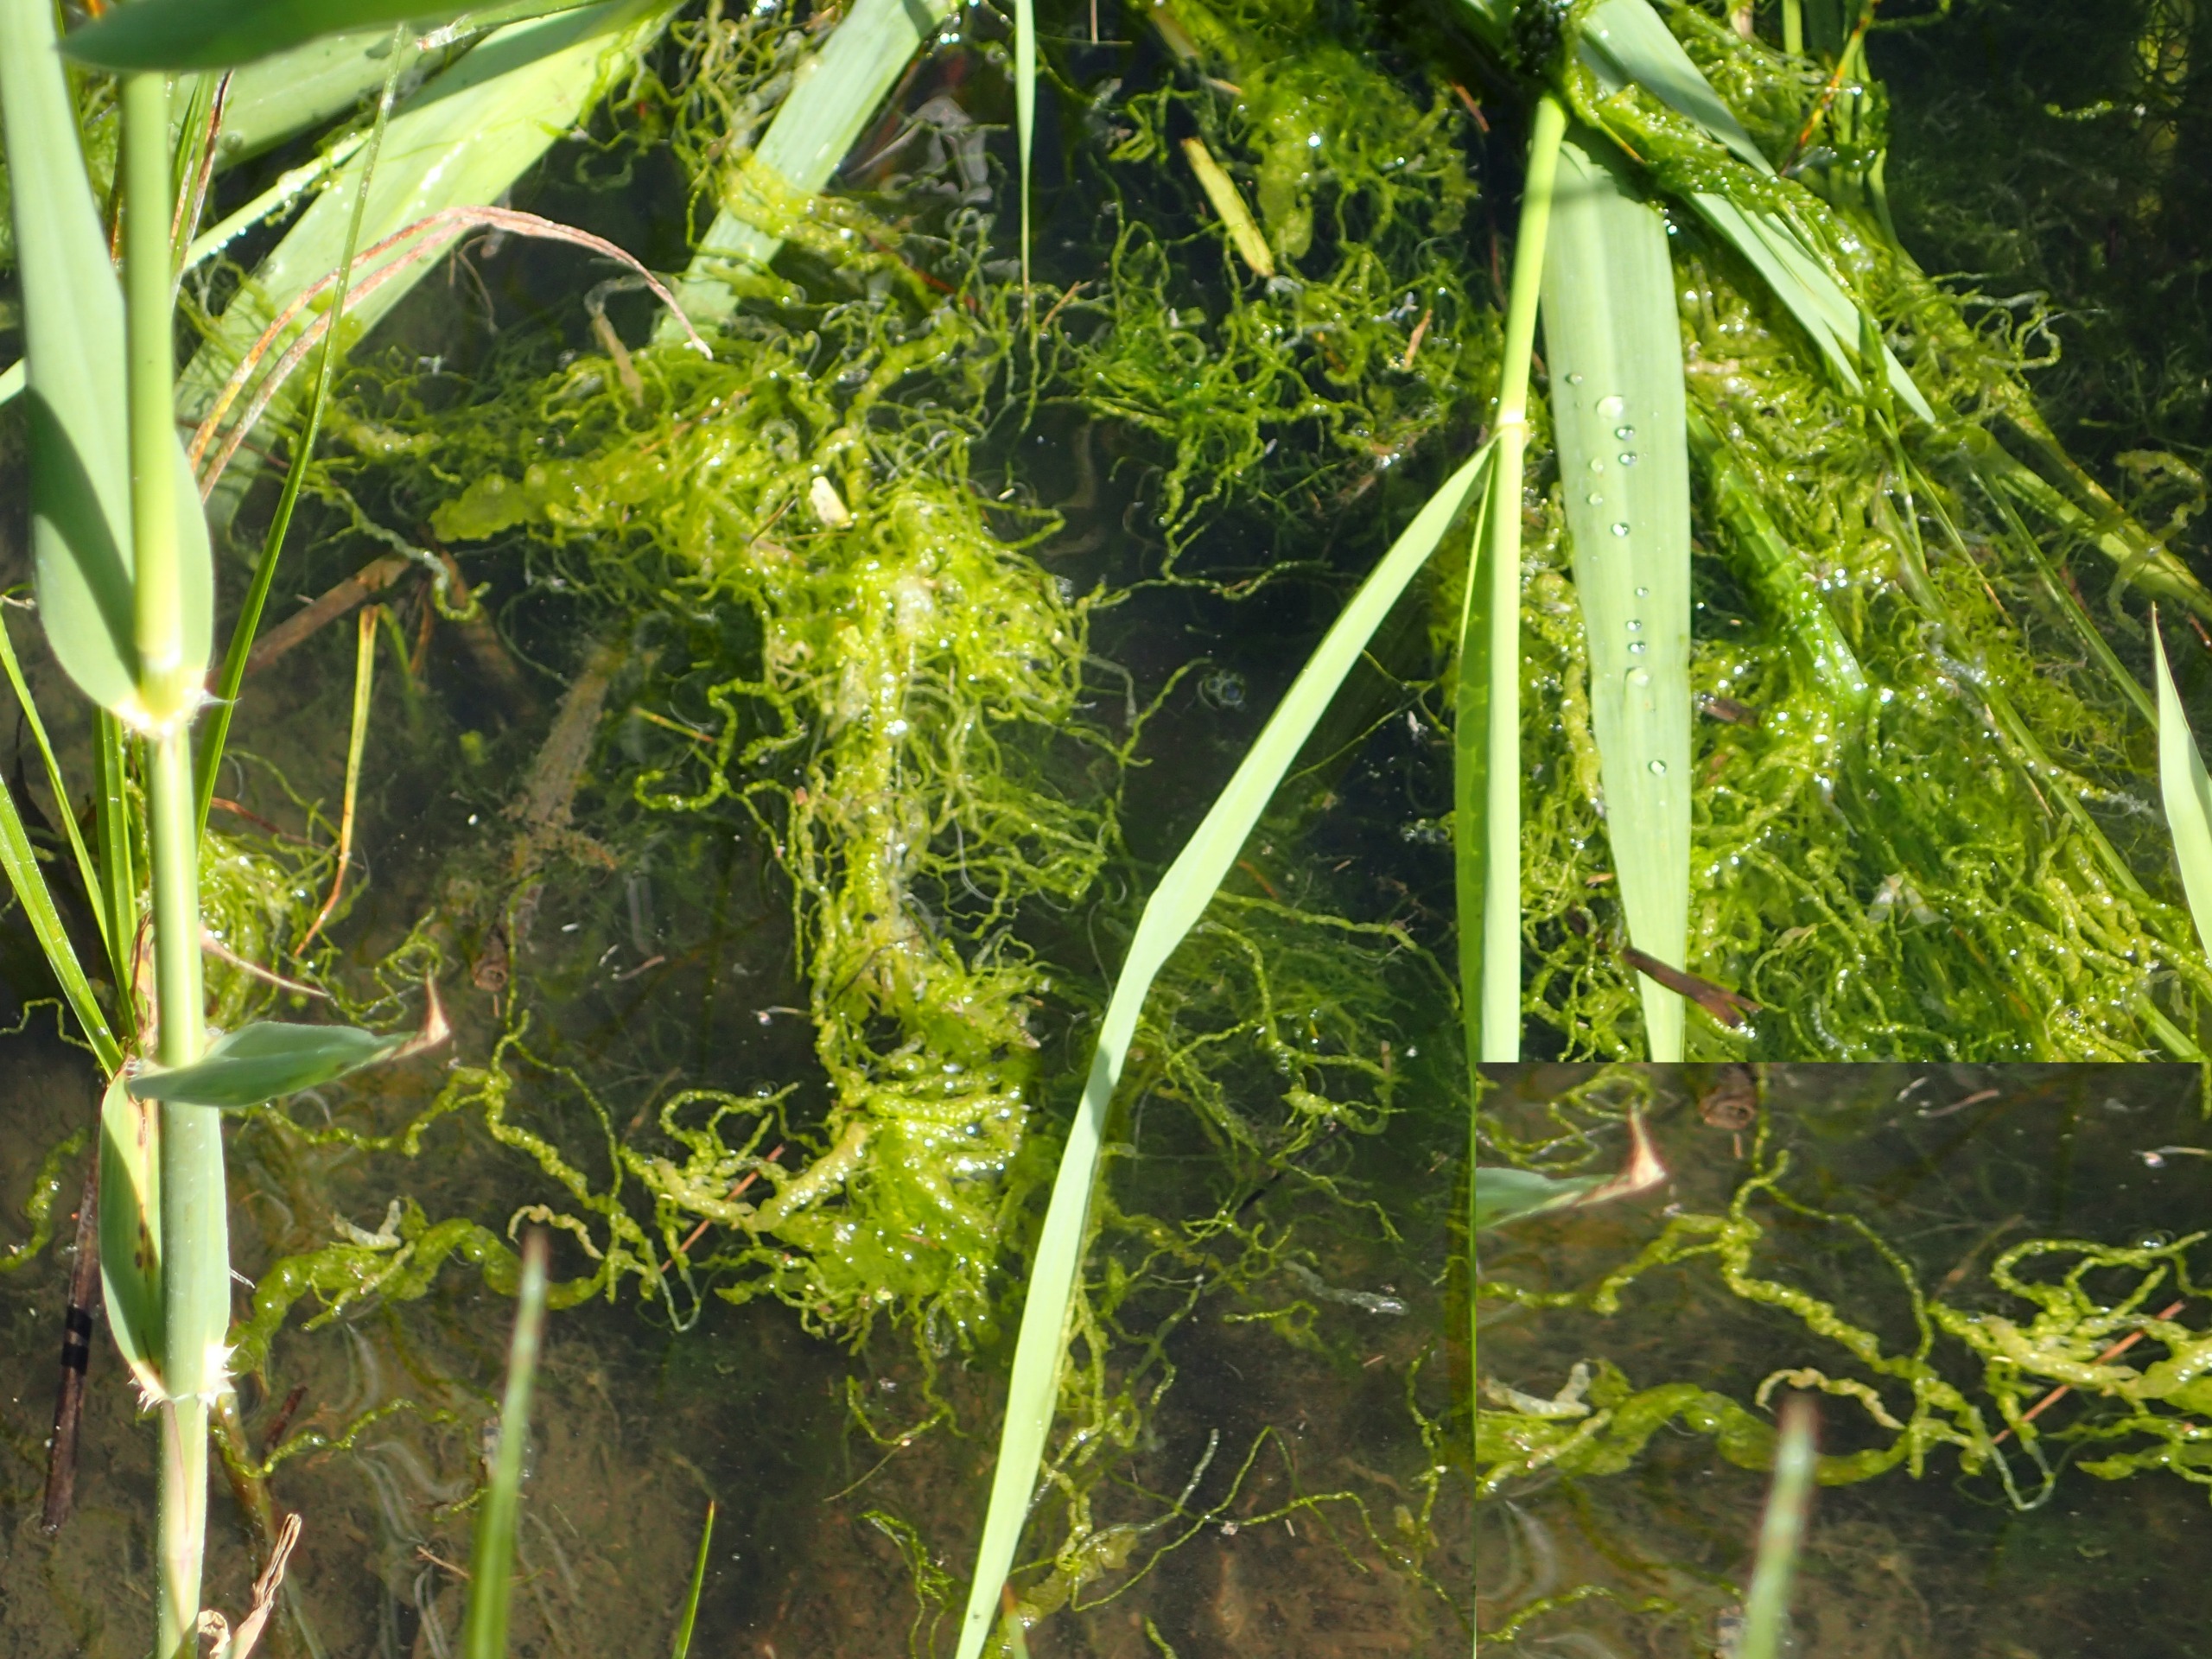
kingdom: Plantae
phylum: Chlorophyta
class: Ulvophyceae
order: Ulvales
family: Ulvaceae
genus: Ulva
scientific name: Ulva
